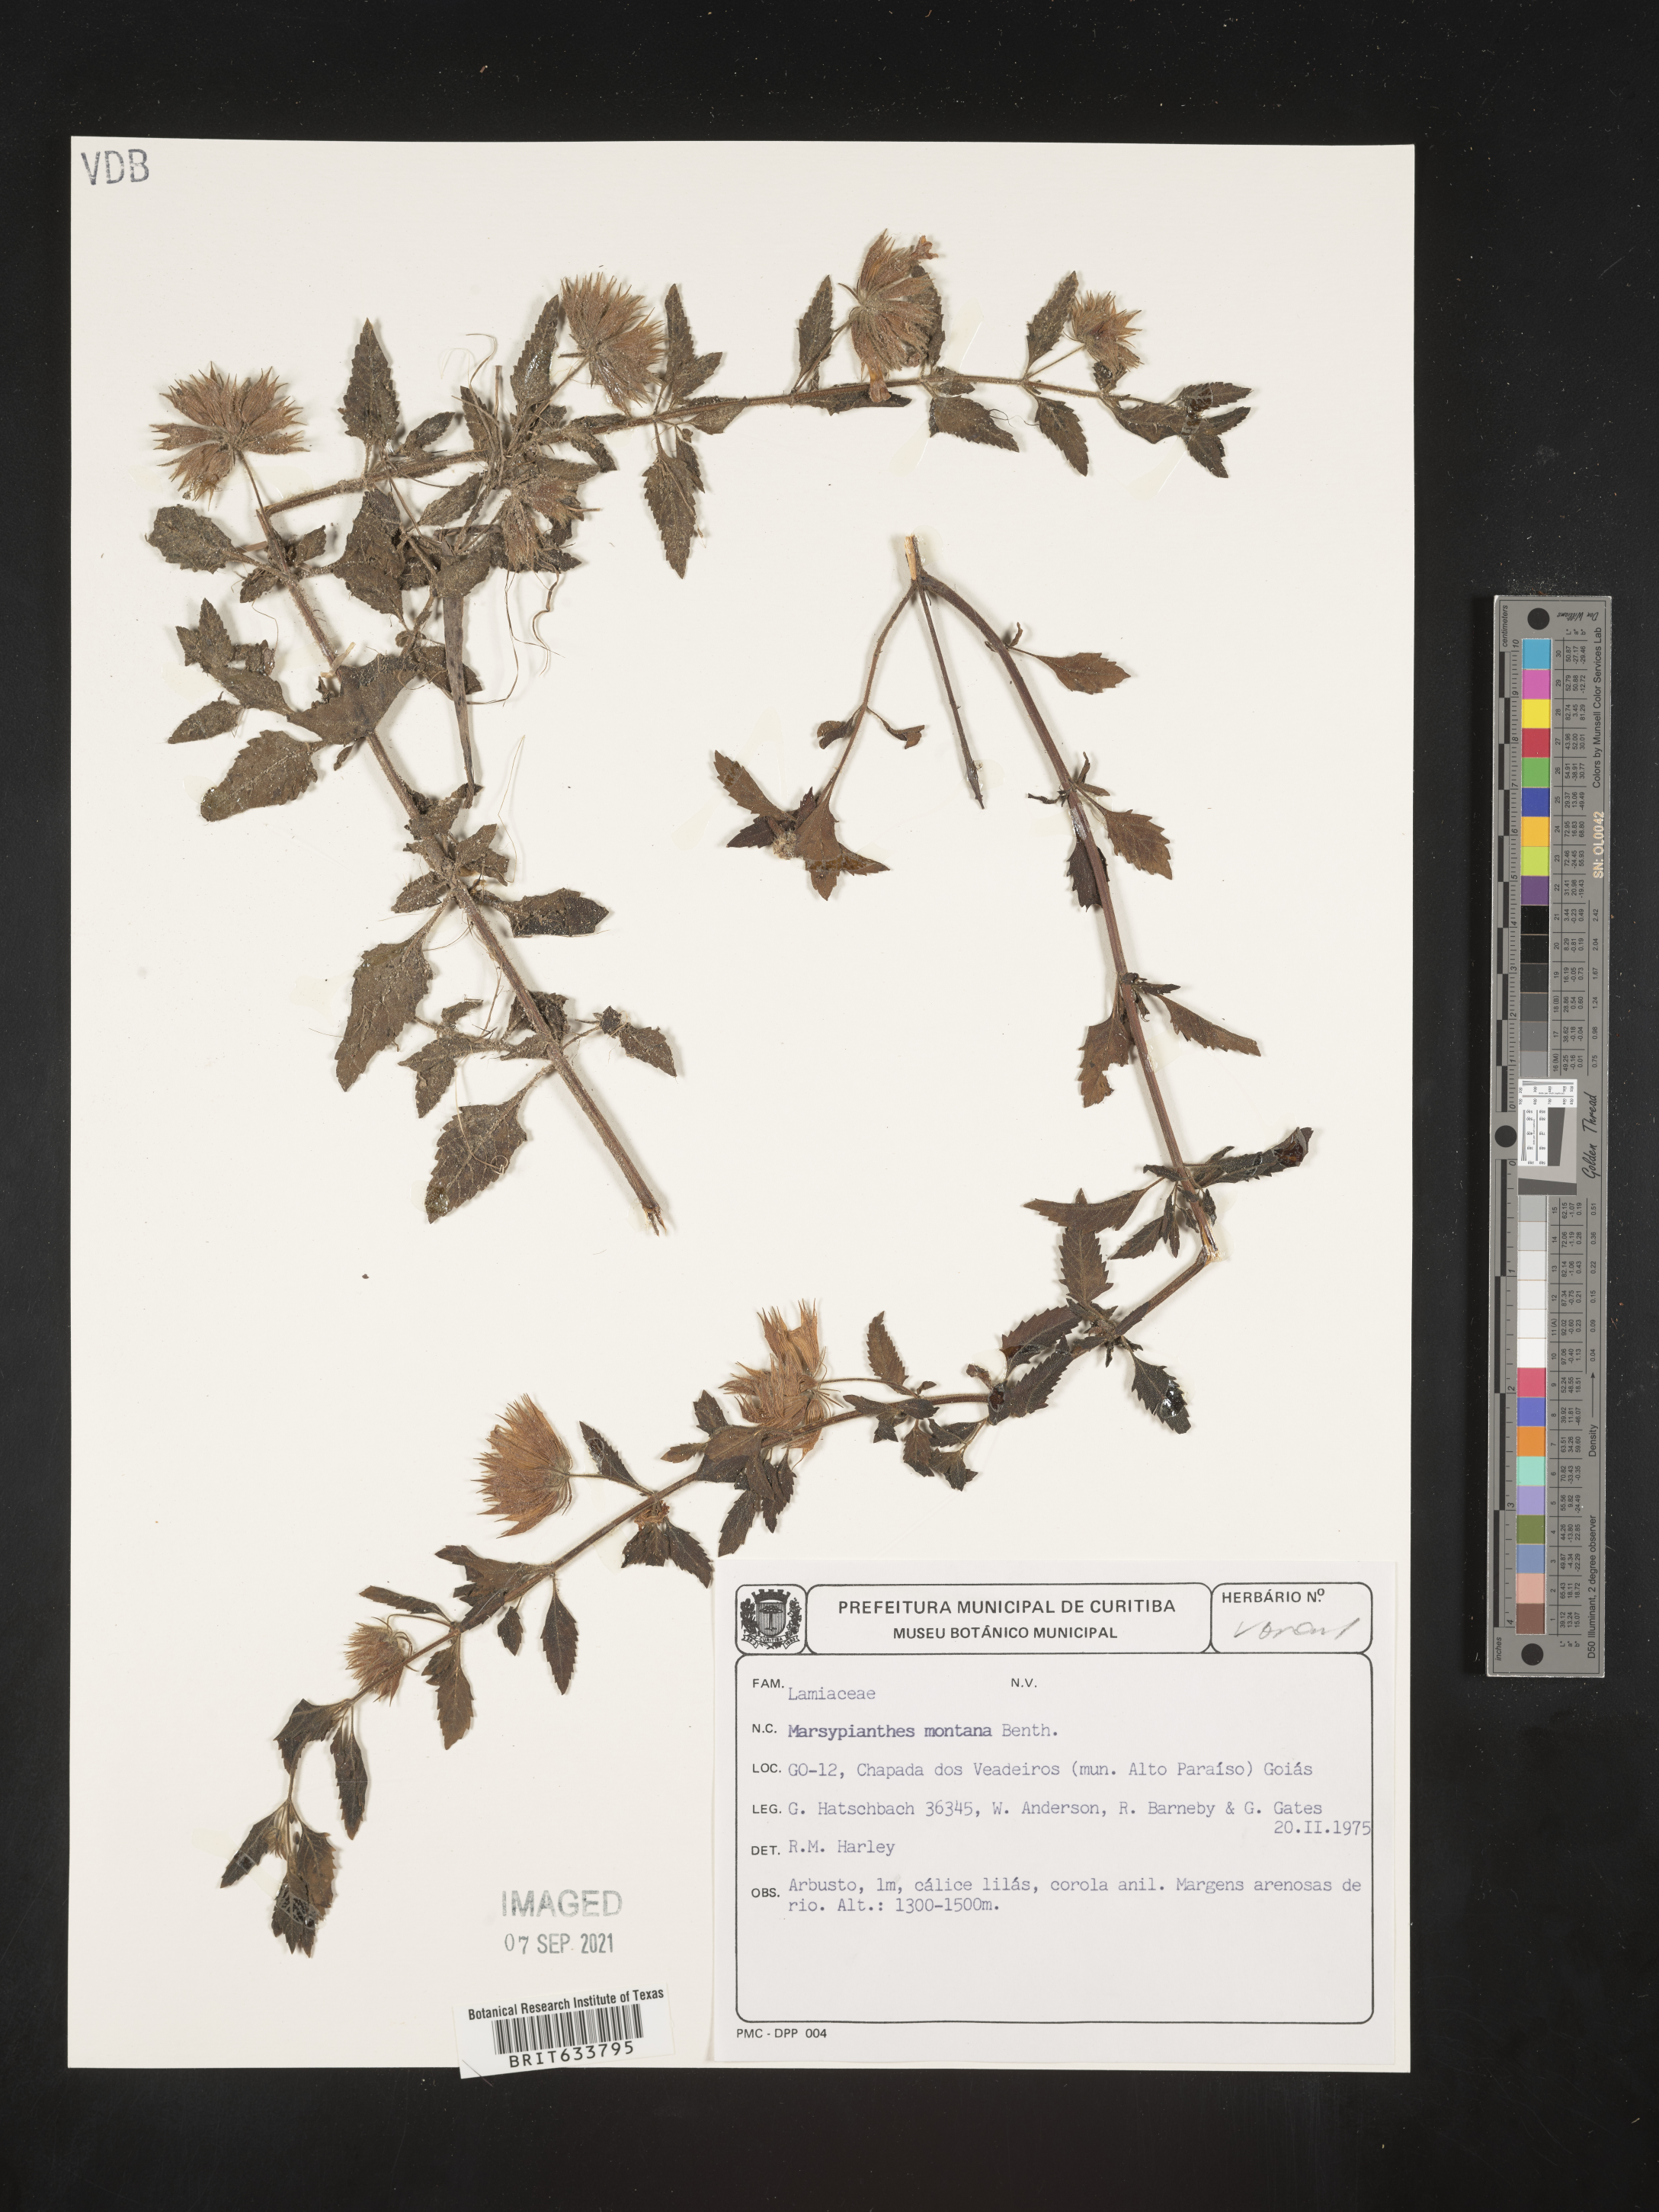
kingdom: Plantae
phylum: Tracheophyta
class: Magnoliopsida
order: Lamiales
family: Lamiaceae
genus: Marsypianthes
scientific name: Marsypianthes
